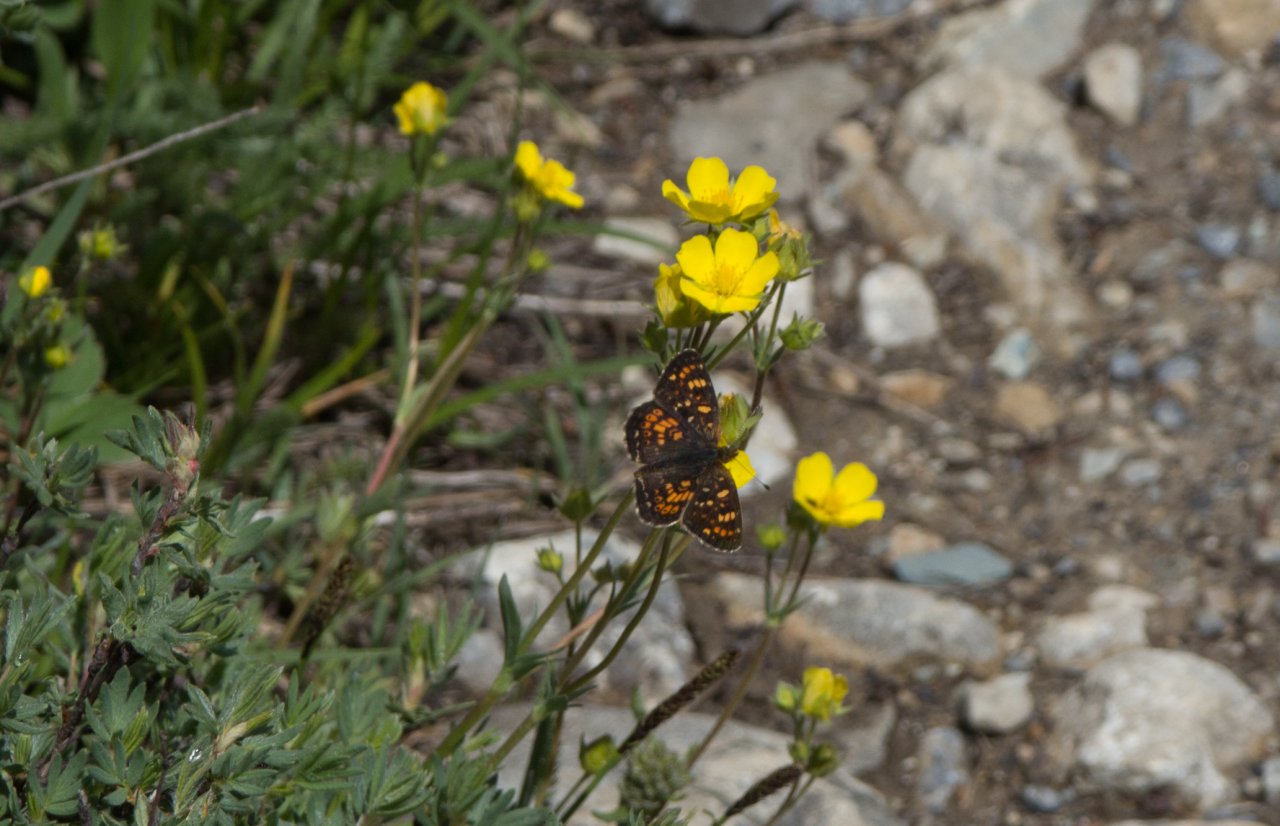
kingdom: Animalia
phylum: Arthropoda
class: Insecta
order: Lepidoptera
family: Nymphalidae
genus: Phyciodes
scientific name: Phyciodes tharos
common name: Field Crescent
